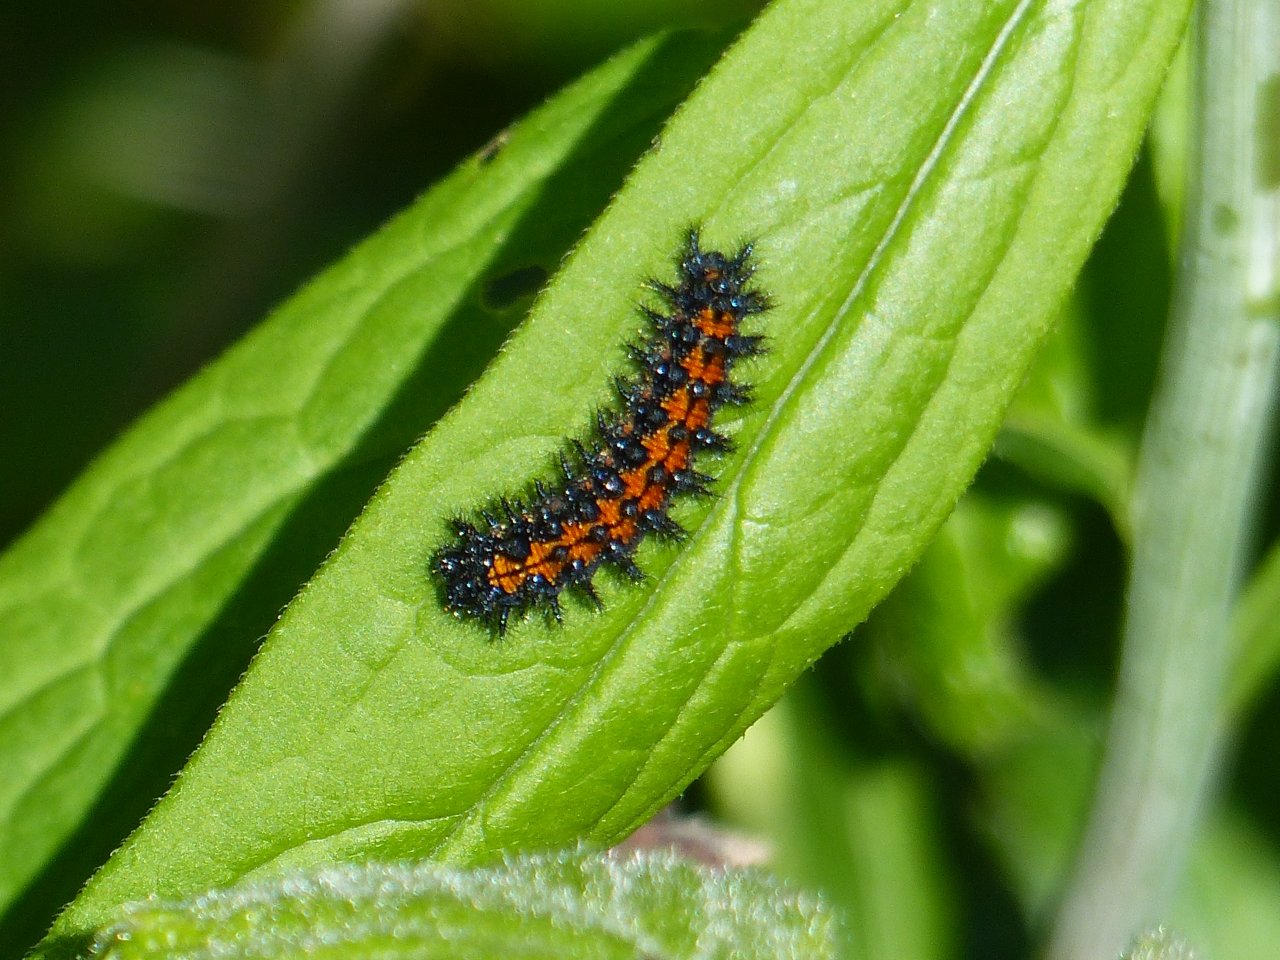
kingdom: Animalia
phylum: Arthropoda
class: Insecta
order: Lepidoptera
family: Nymphalidae
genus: Chlosyne
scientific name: Chlosyne harrisii
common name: Harris's Checkerspot
